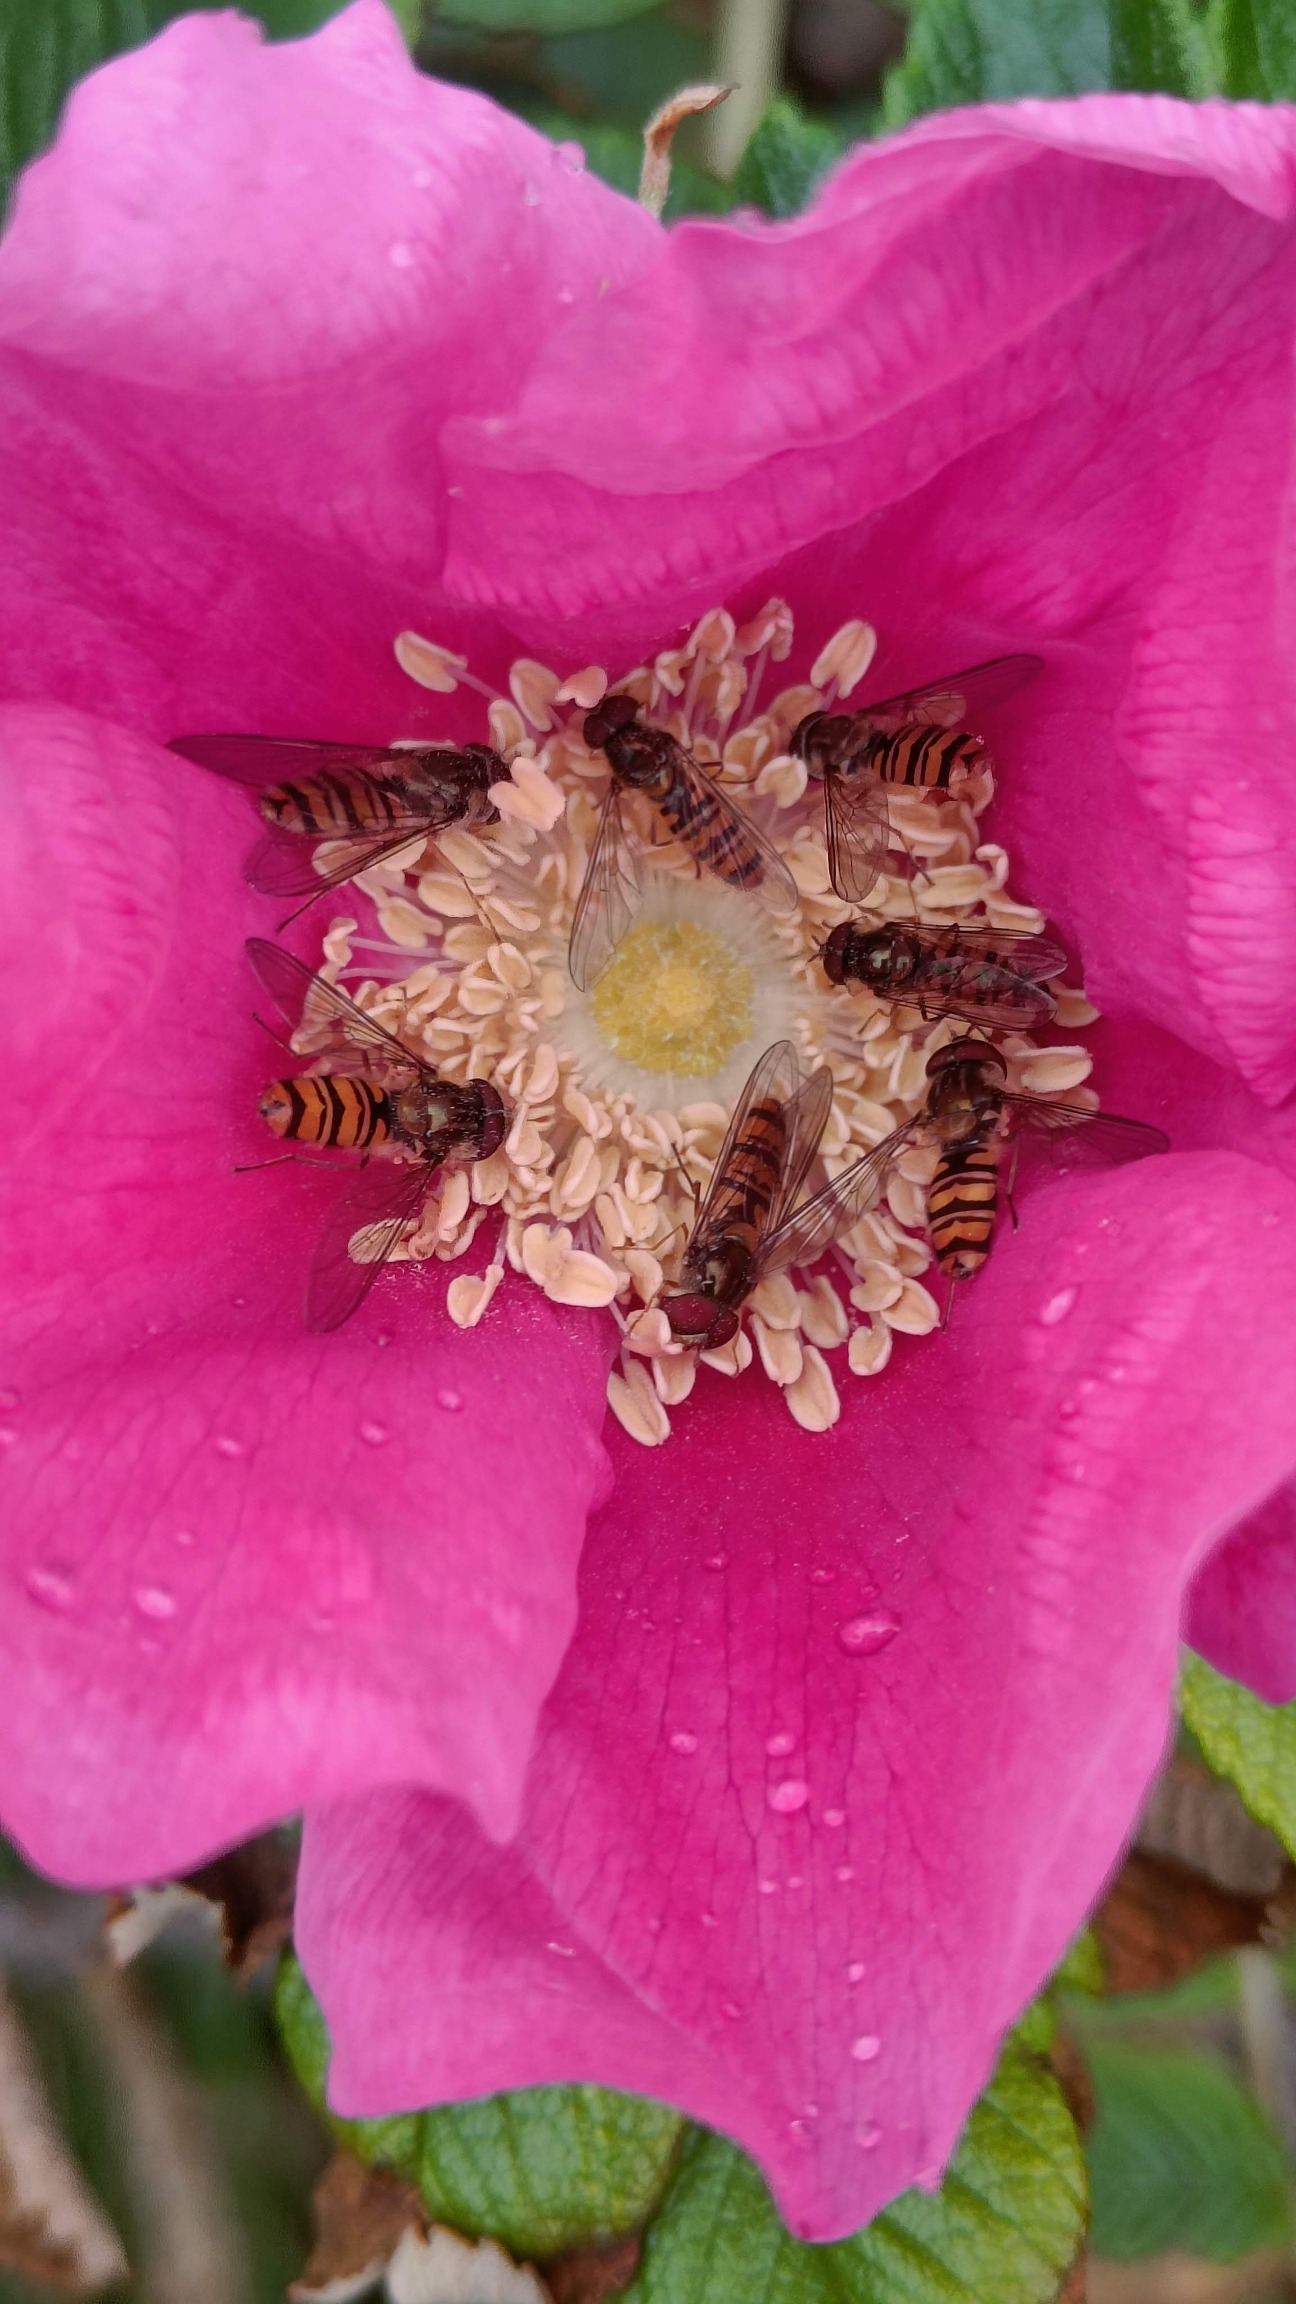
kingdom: Animalia
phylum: Arthropoda
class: Insecta
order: Diptera
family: Syrphidae
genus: Episyrphus
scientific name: Episyrphus balteatus
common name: Dobbeltbåndet svirreflue
